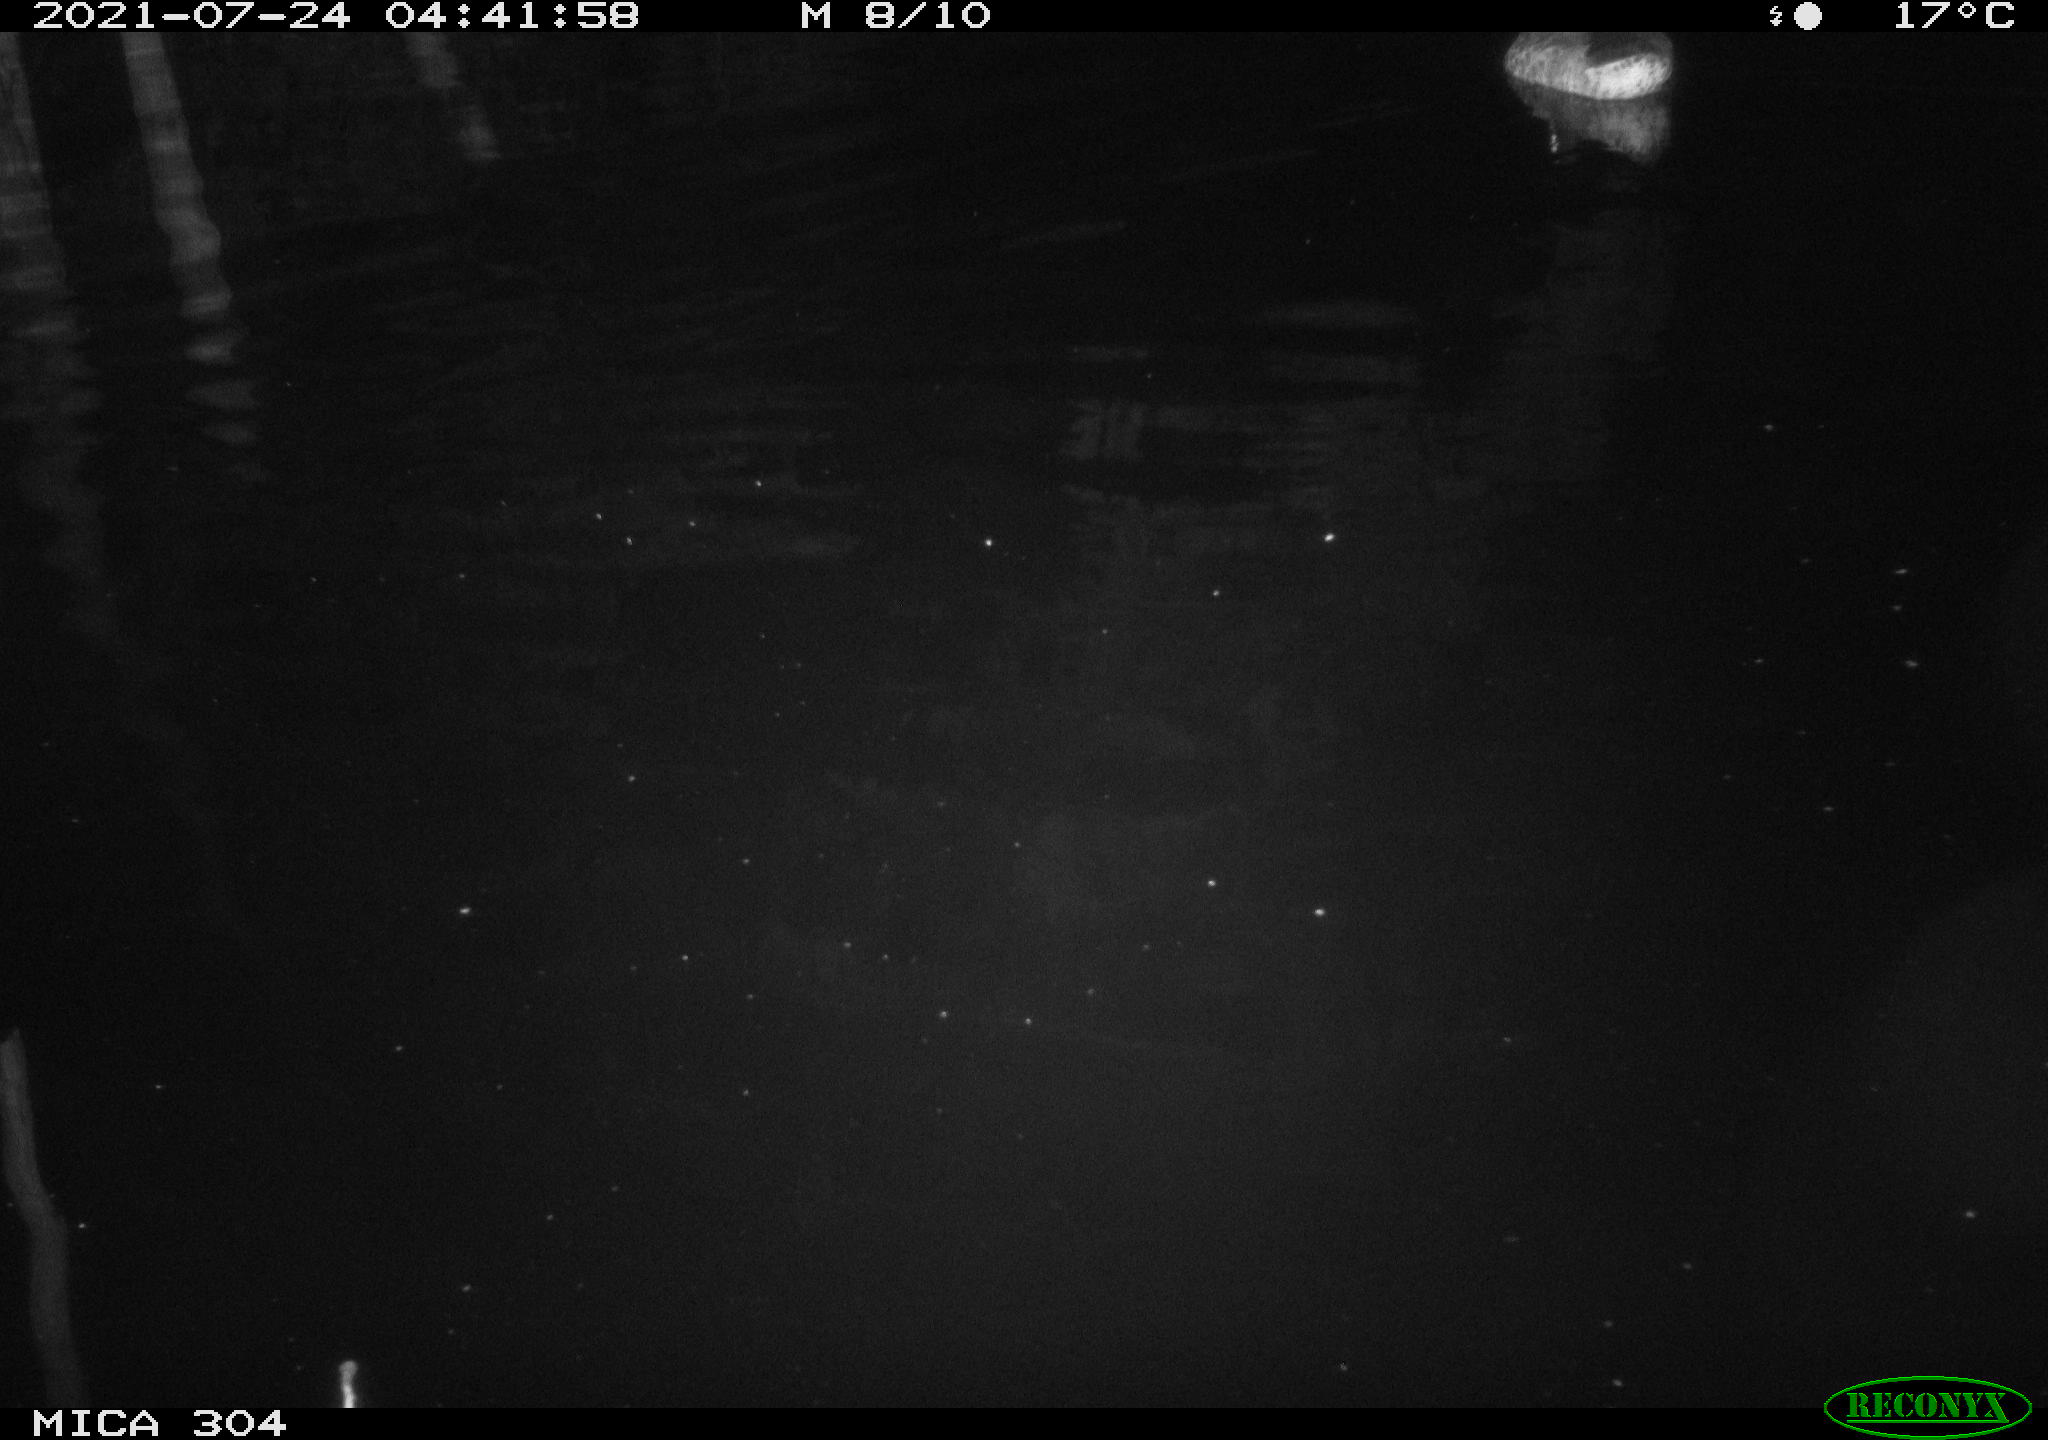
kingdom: Animalia
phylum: Chordata
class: Aves
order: Anseriformes
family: Anatidae
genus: Anas
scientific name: Anas platyrhynchos
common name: Mallard
